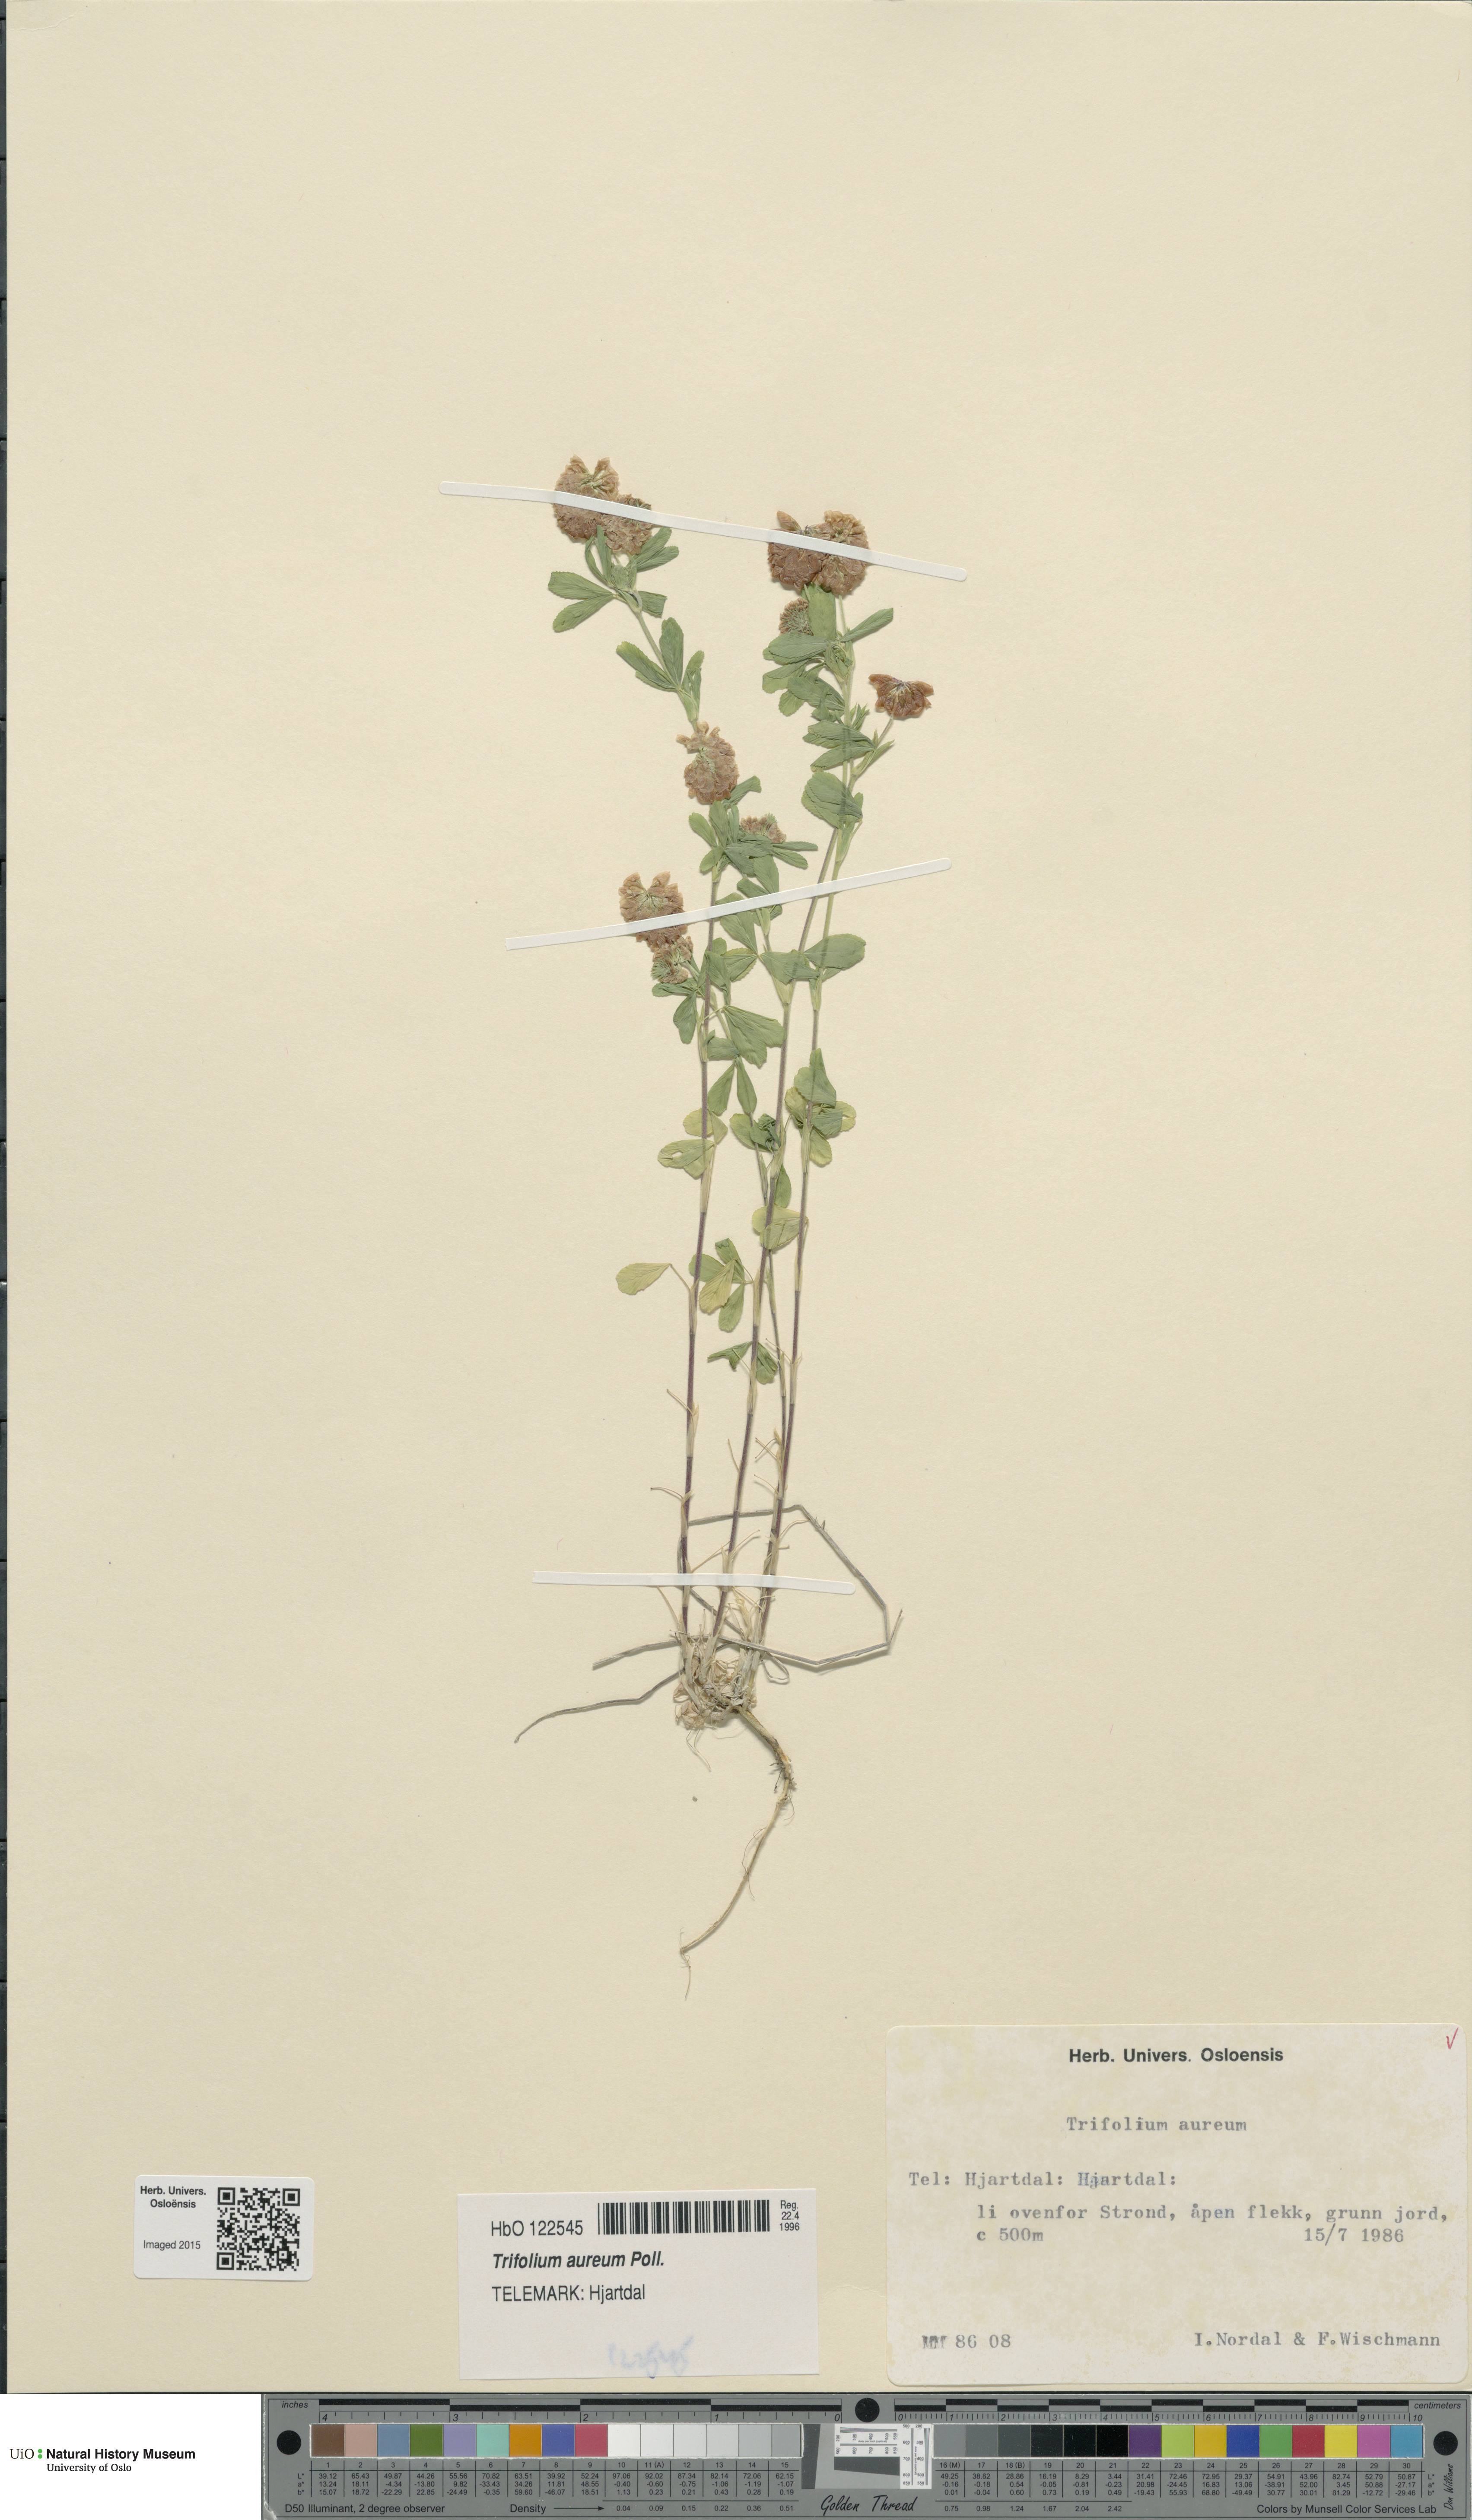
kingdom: Plantae
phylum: Tracheophyta
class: Magnoliopsida
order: Fabales
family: Fabaceae
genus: Trifolium
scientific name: Trifolium aureum
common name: Golden clover
